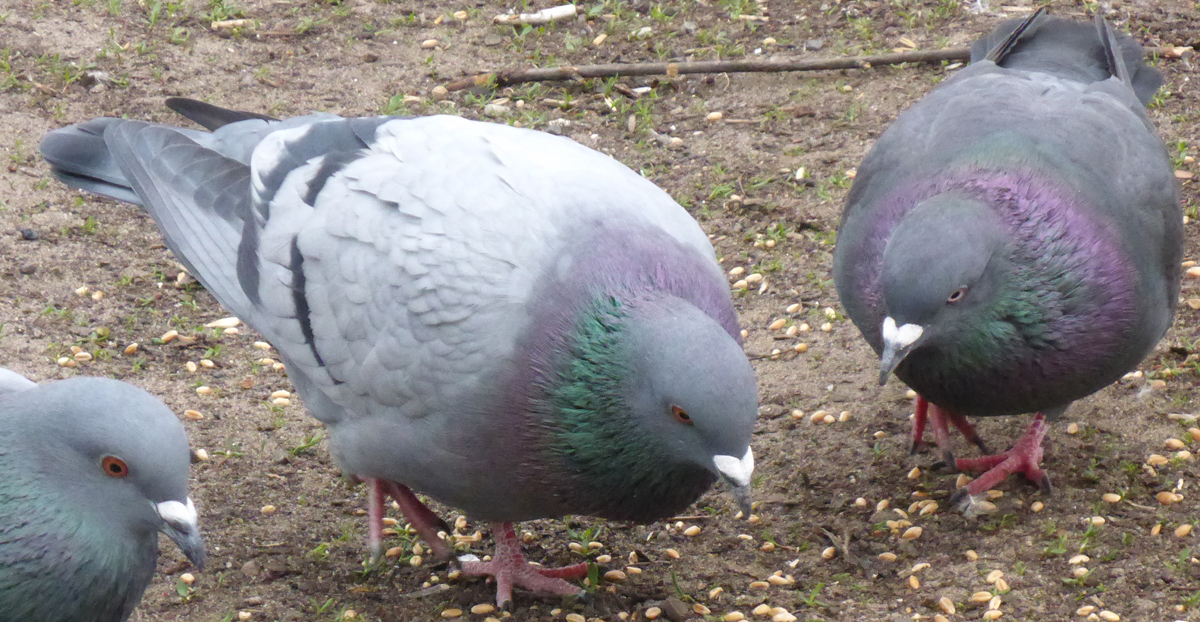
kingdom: Animalia
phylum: Chordata
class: Aves
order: Columbiformes
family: Columbidae
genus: Columba
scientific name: Columba livia
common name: Rock pigeon
